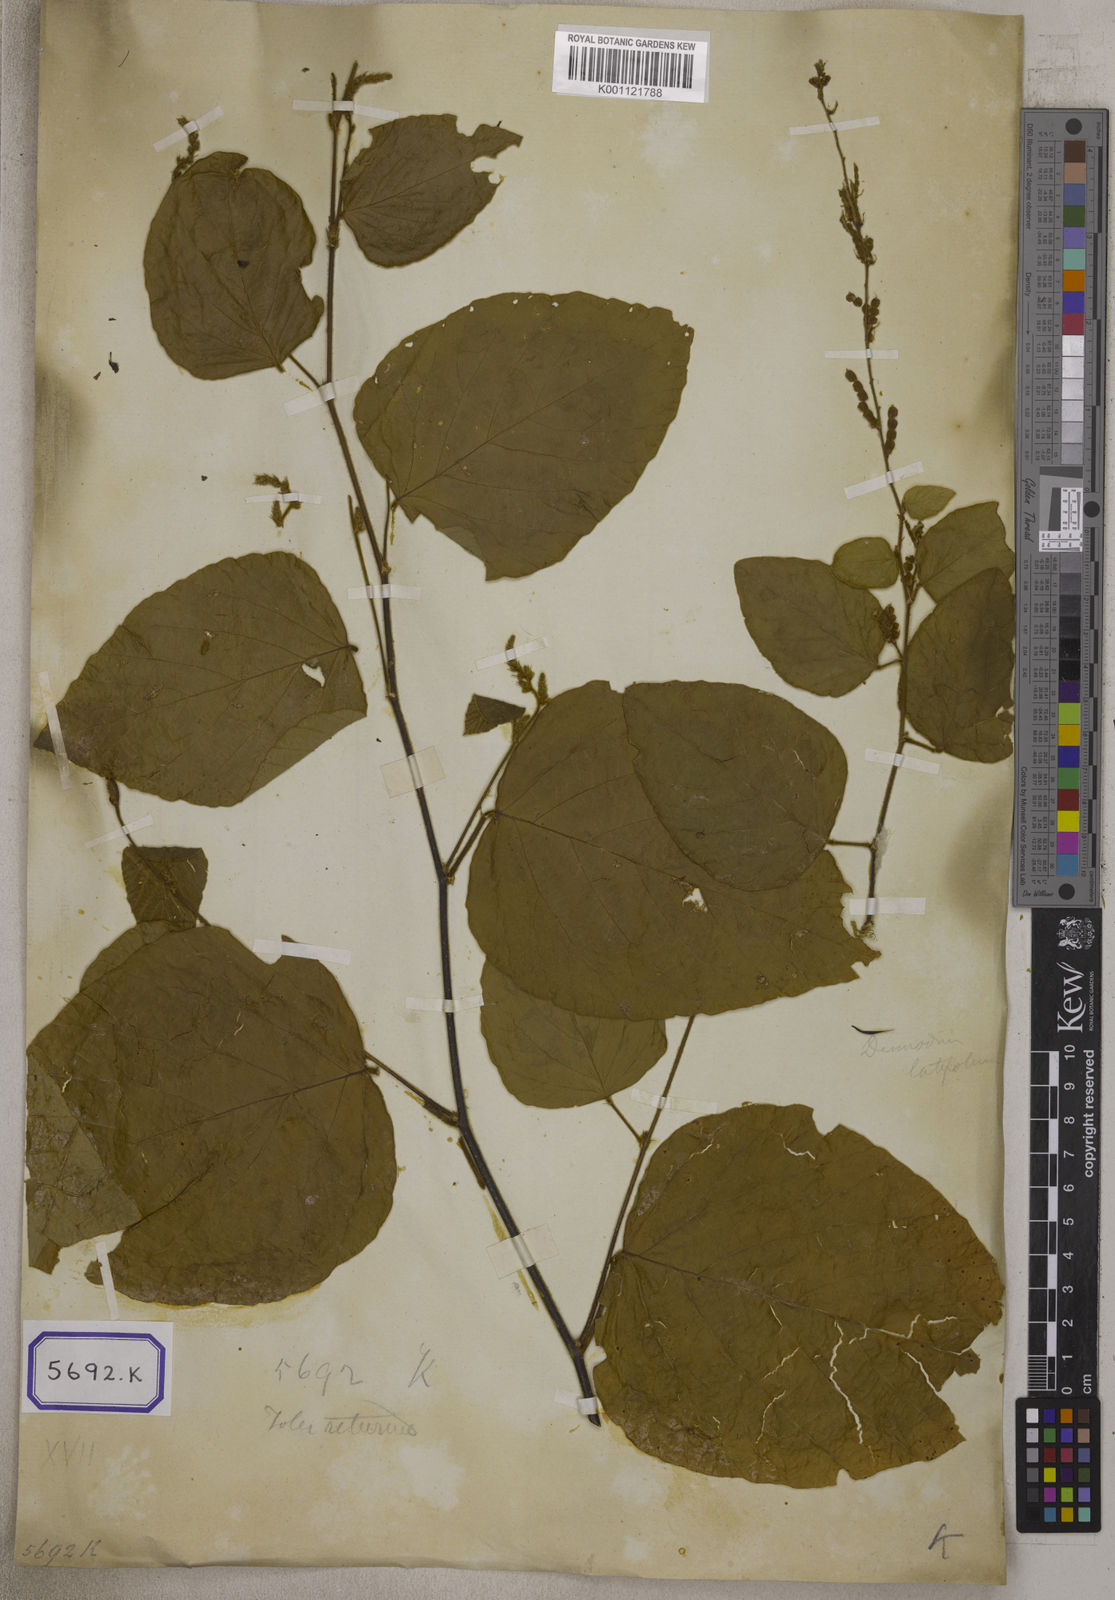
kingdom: Plantae
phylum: Tracheophyta
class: Magnoliopsida
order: Fabales
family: Fabaceae
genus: Polhillides
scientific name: Polhillides velutina
